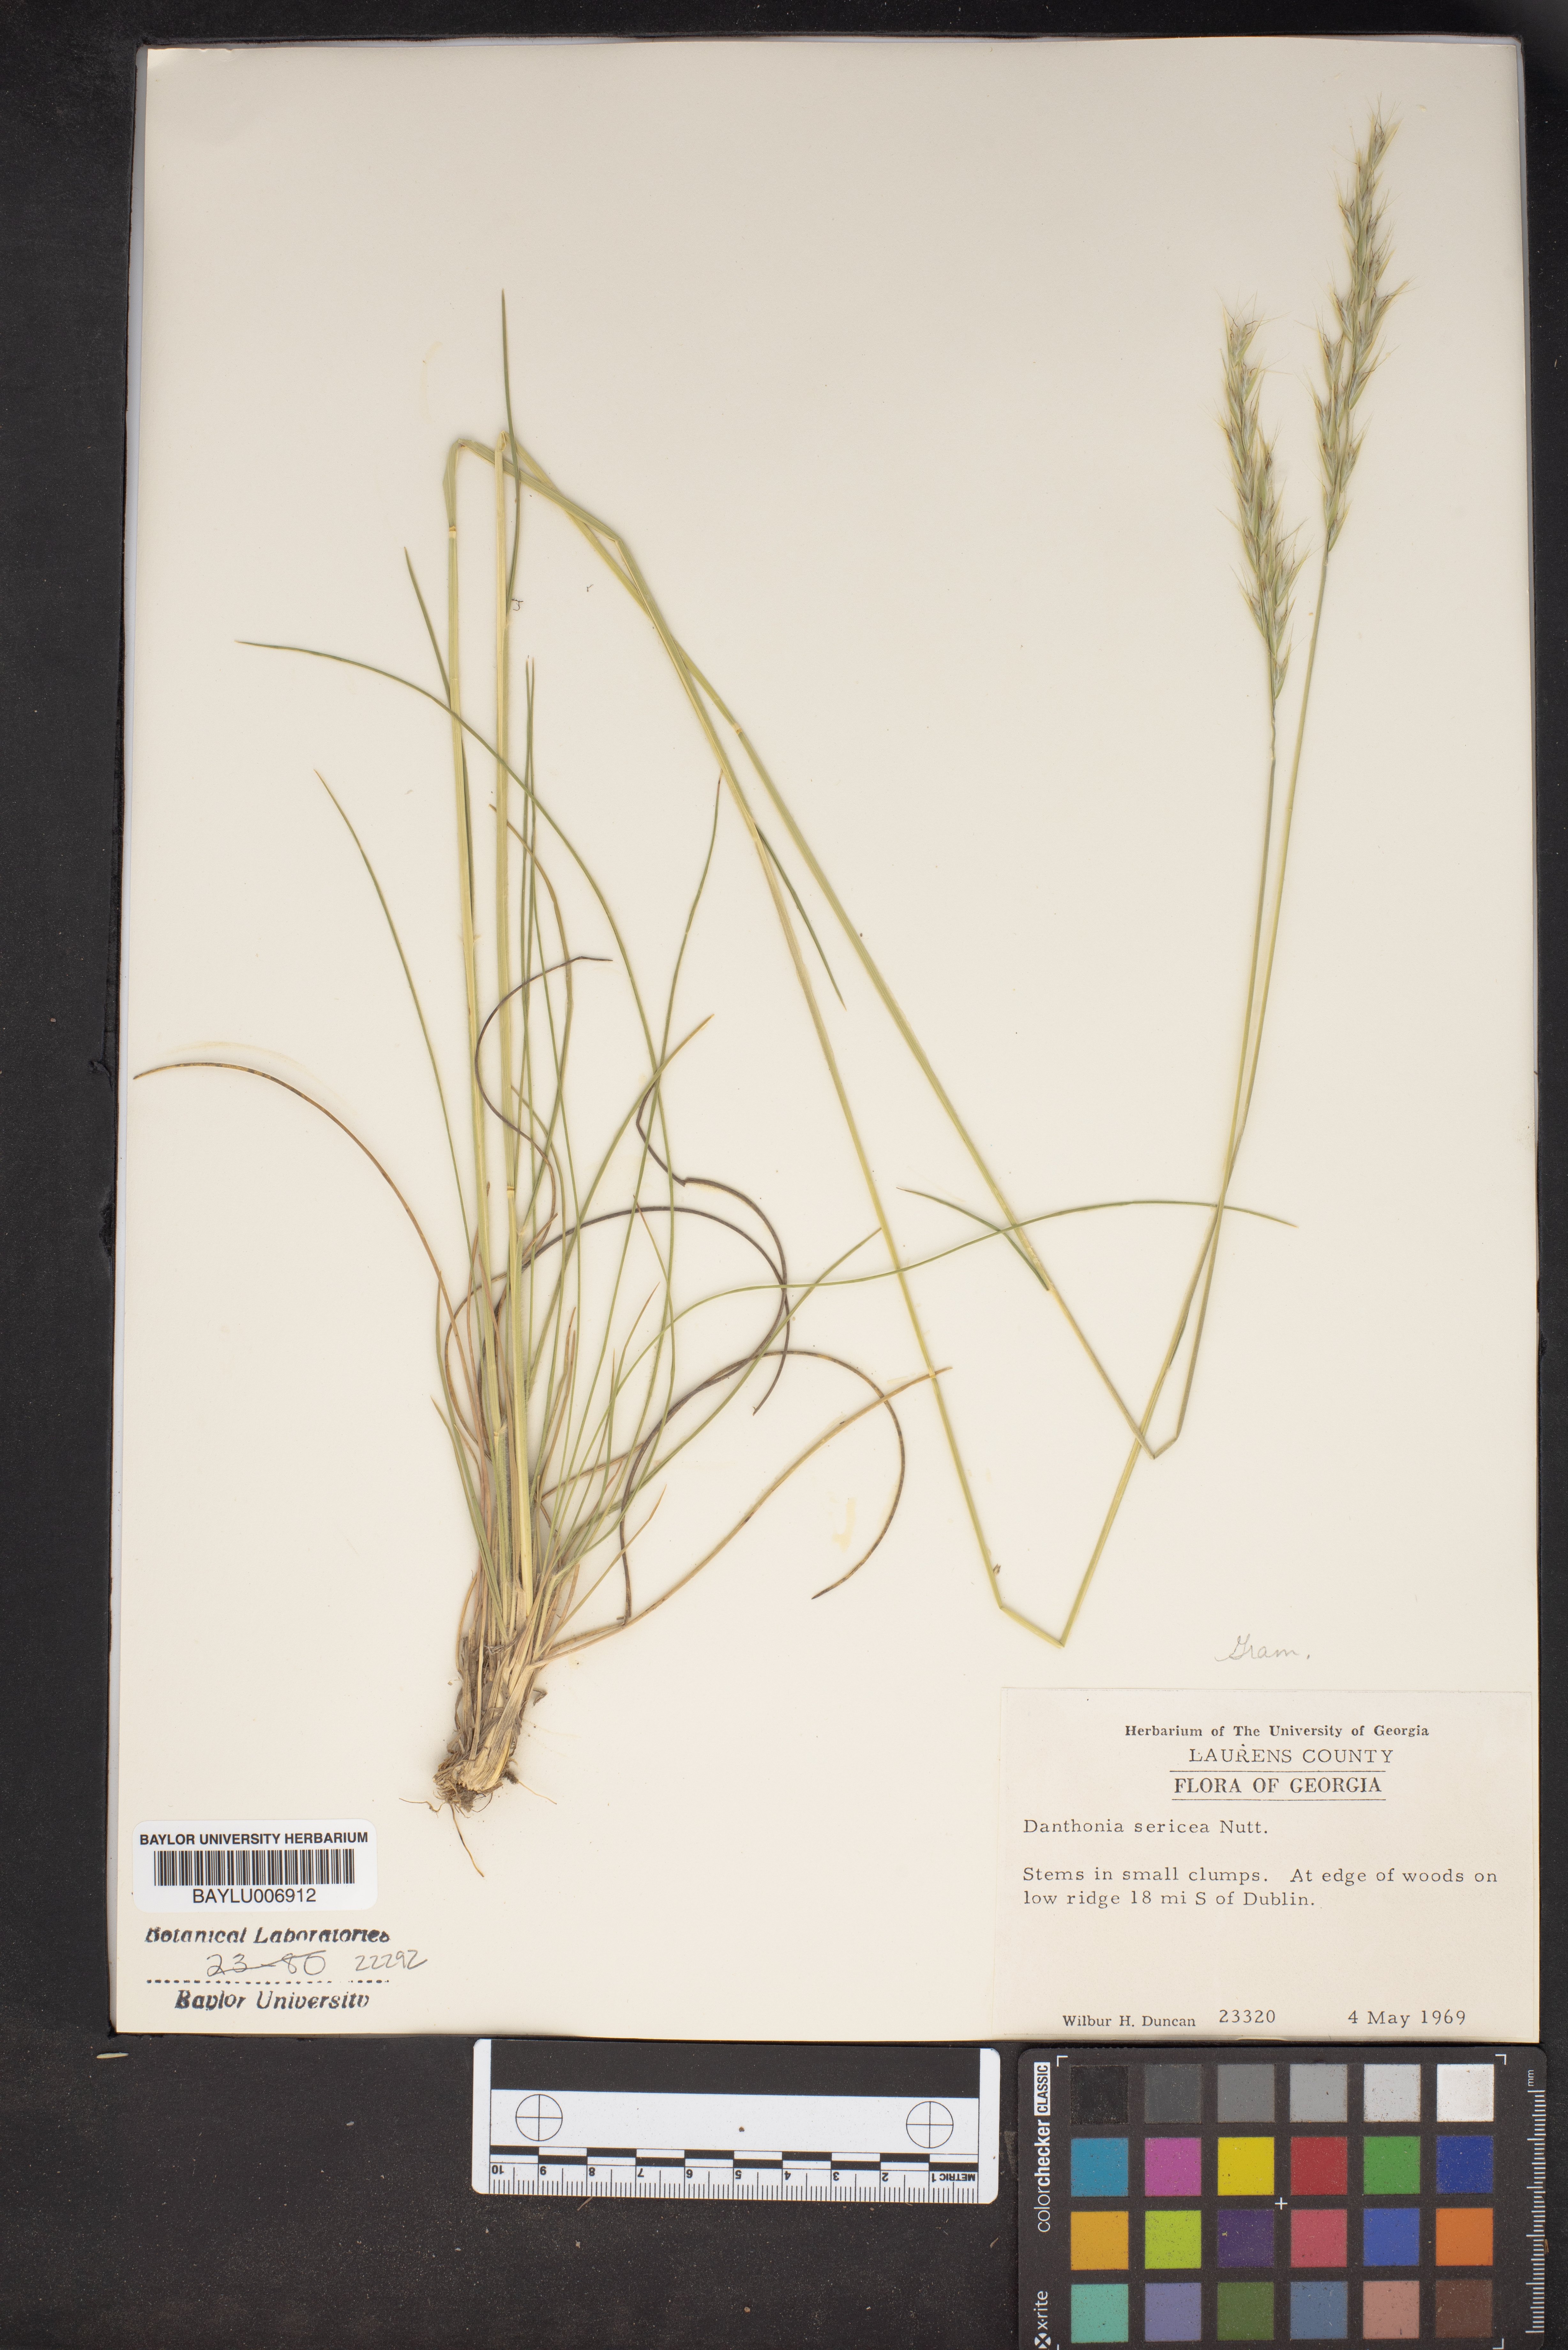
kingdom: Plantae
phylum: Tracheophyta
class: Liliopsida
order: Poales
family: Poaceae
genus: Danthonia
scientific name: Danthonia sericea
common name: Downy danthonia
